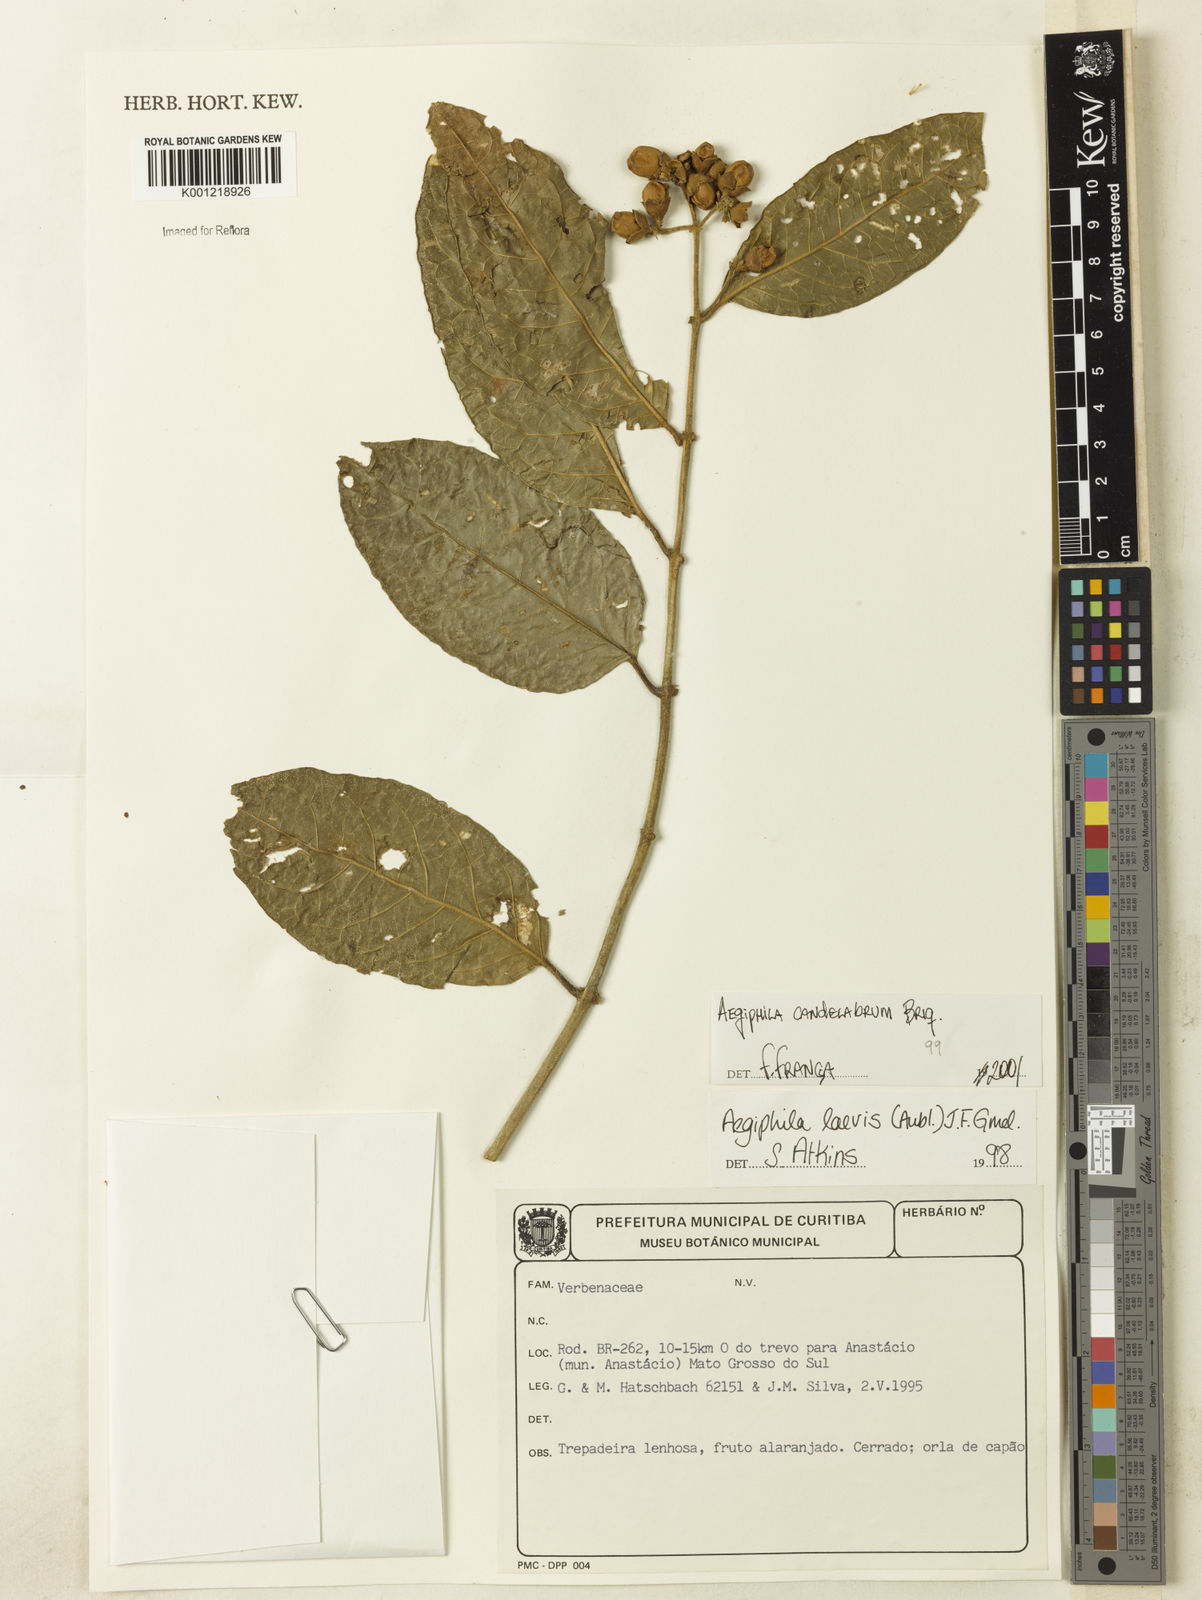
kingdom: Plantae
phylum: Tracheophyta
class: Magnoliopsida
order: Lamiales
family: Lamiaceae
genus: Aegiphila
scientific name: Aegiphila vitelliniflora
